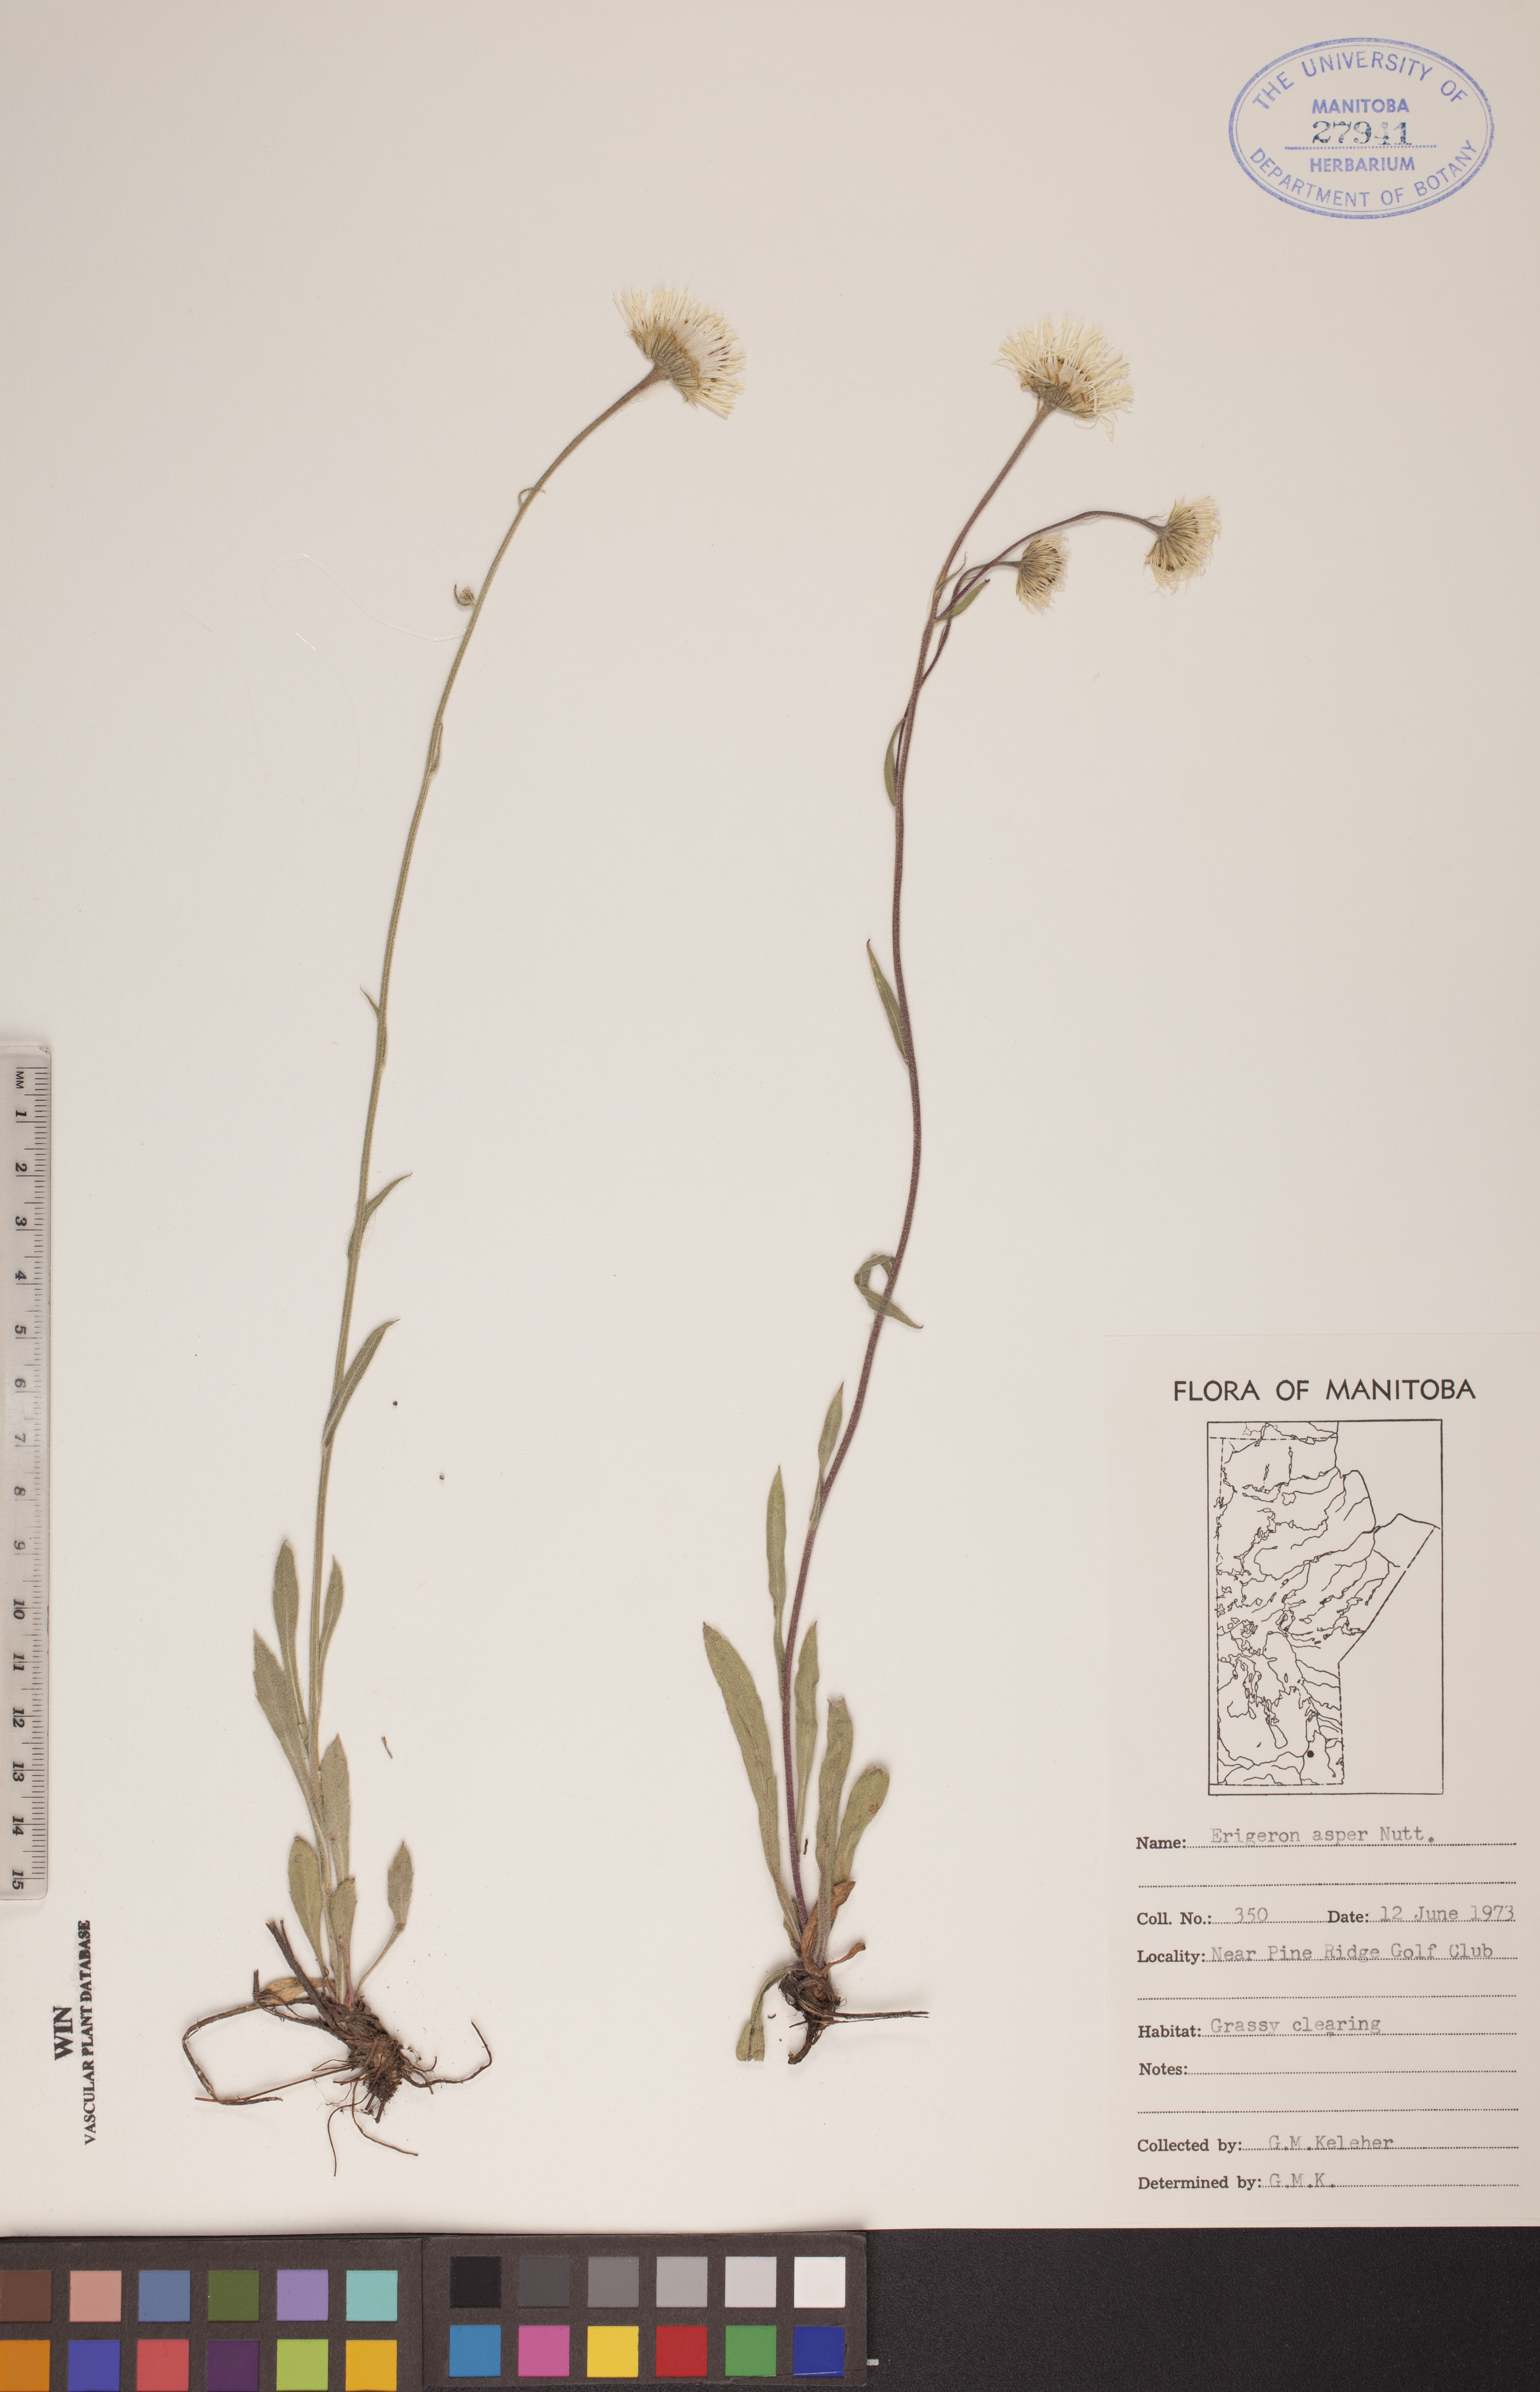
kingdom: Plantae
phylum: Tracheophyta
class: Magnoliopsida
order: Asterales
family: Asteraceae
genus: Erigeron
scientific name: Erigeron glabellus
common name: Smooth fleabane
